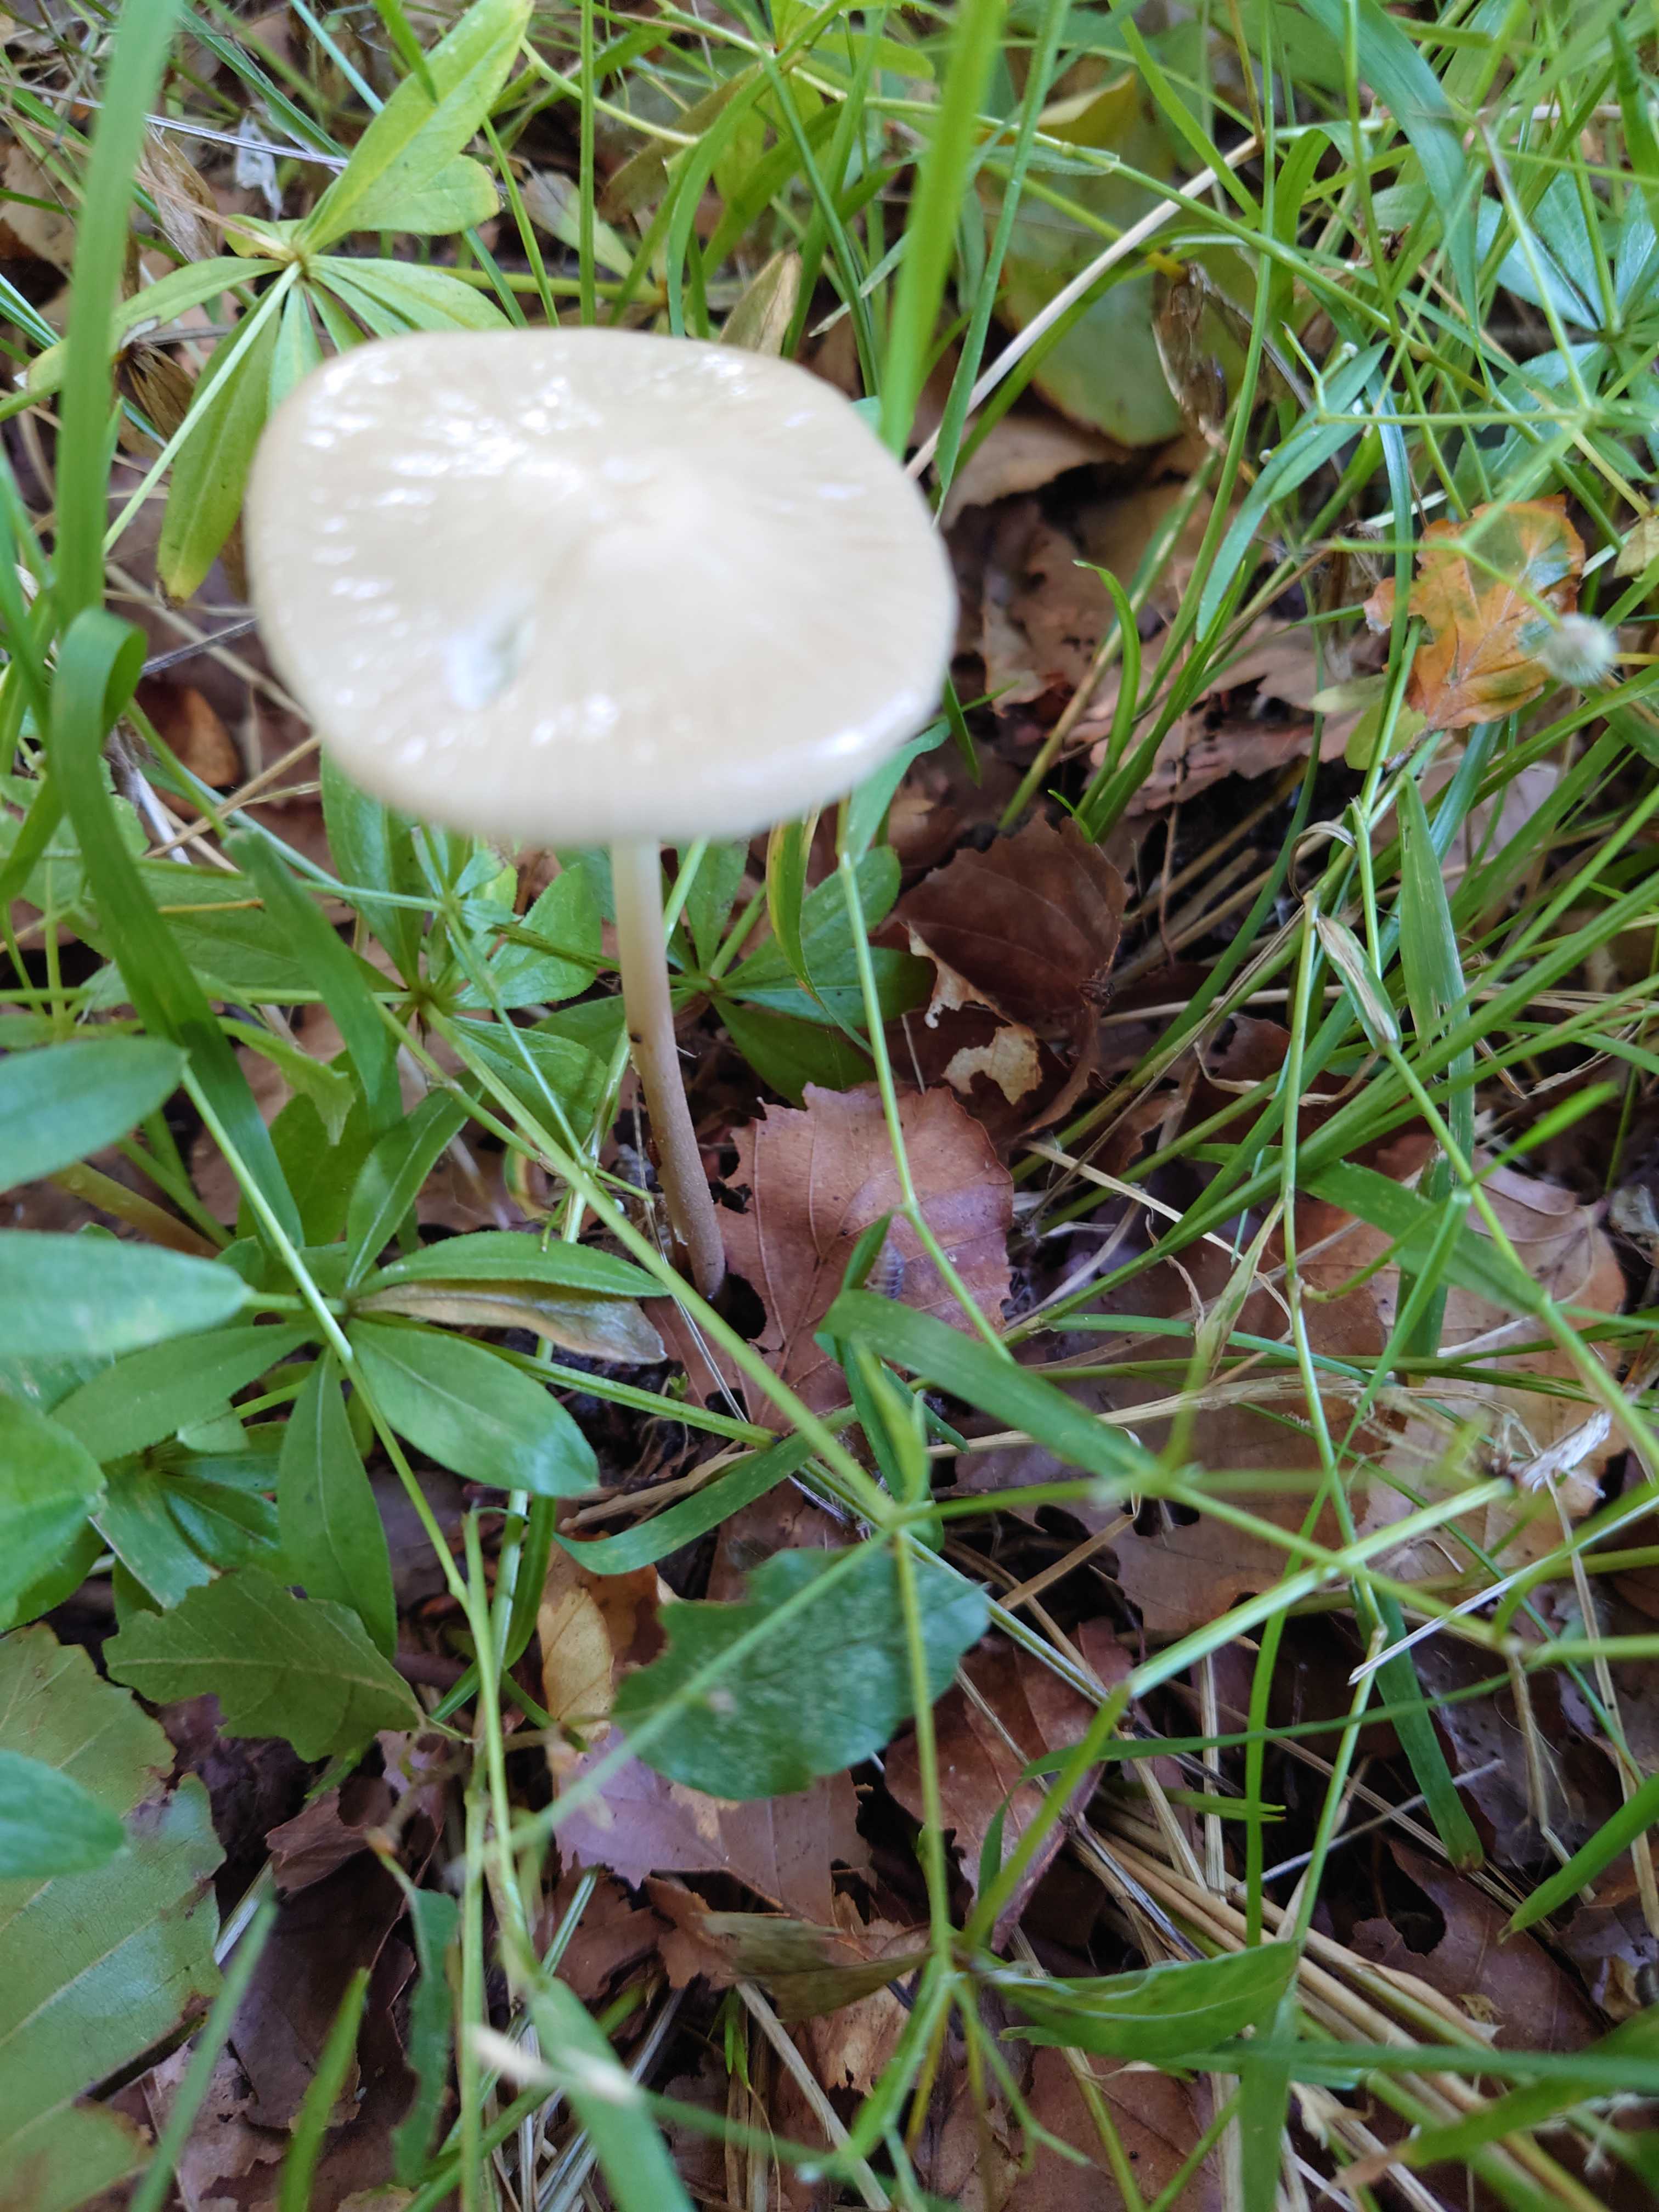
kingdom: Fungi
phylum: Basidiomycota
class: Agaricomycetes
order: Agaricales
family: Physalacriaceae
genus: Hymenopellis
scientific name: Hymenopellis radicata
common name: almindelig pælerodshat
